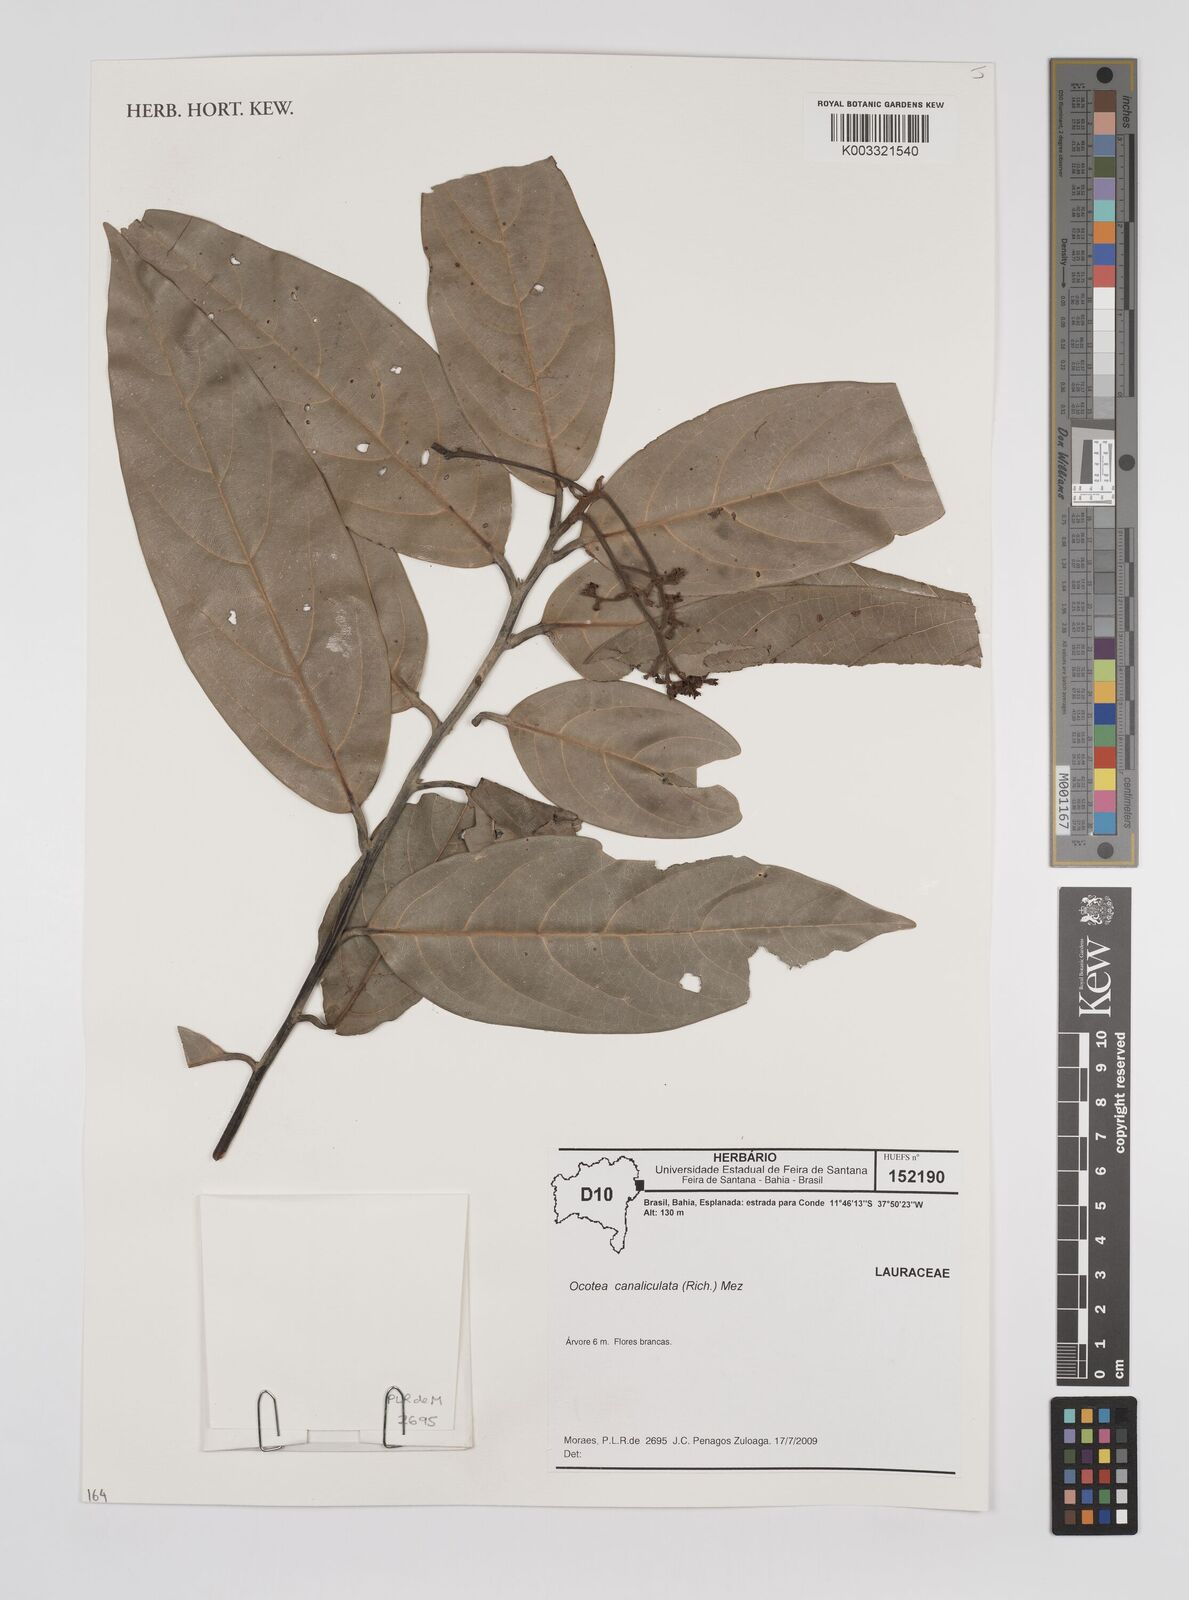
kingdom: Plantae
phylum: Tracheophyta
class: Magnoliopsida
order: Laurales
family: Lauraceae
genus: Ocotea
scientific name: Ocotea canaliculata
